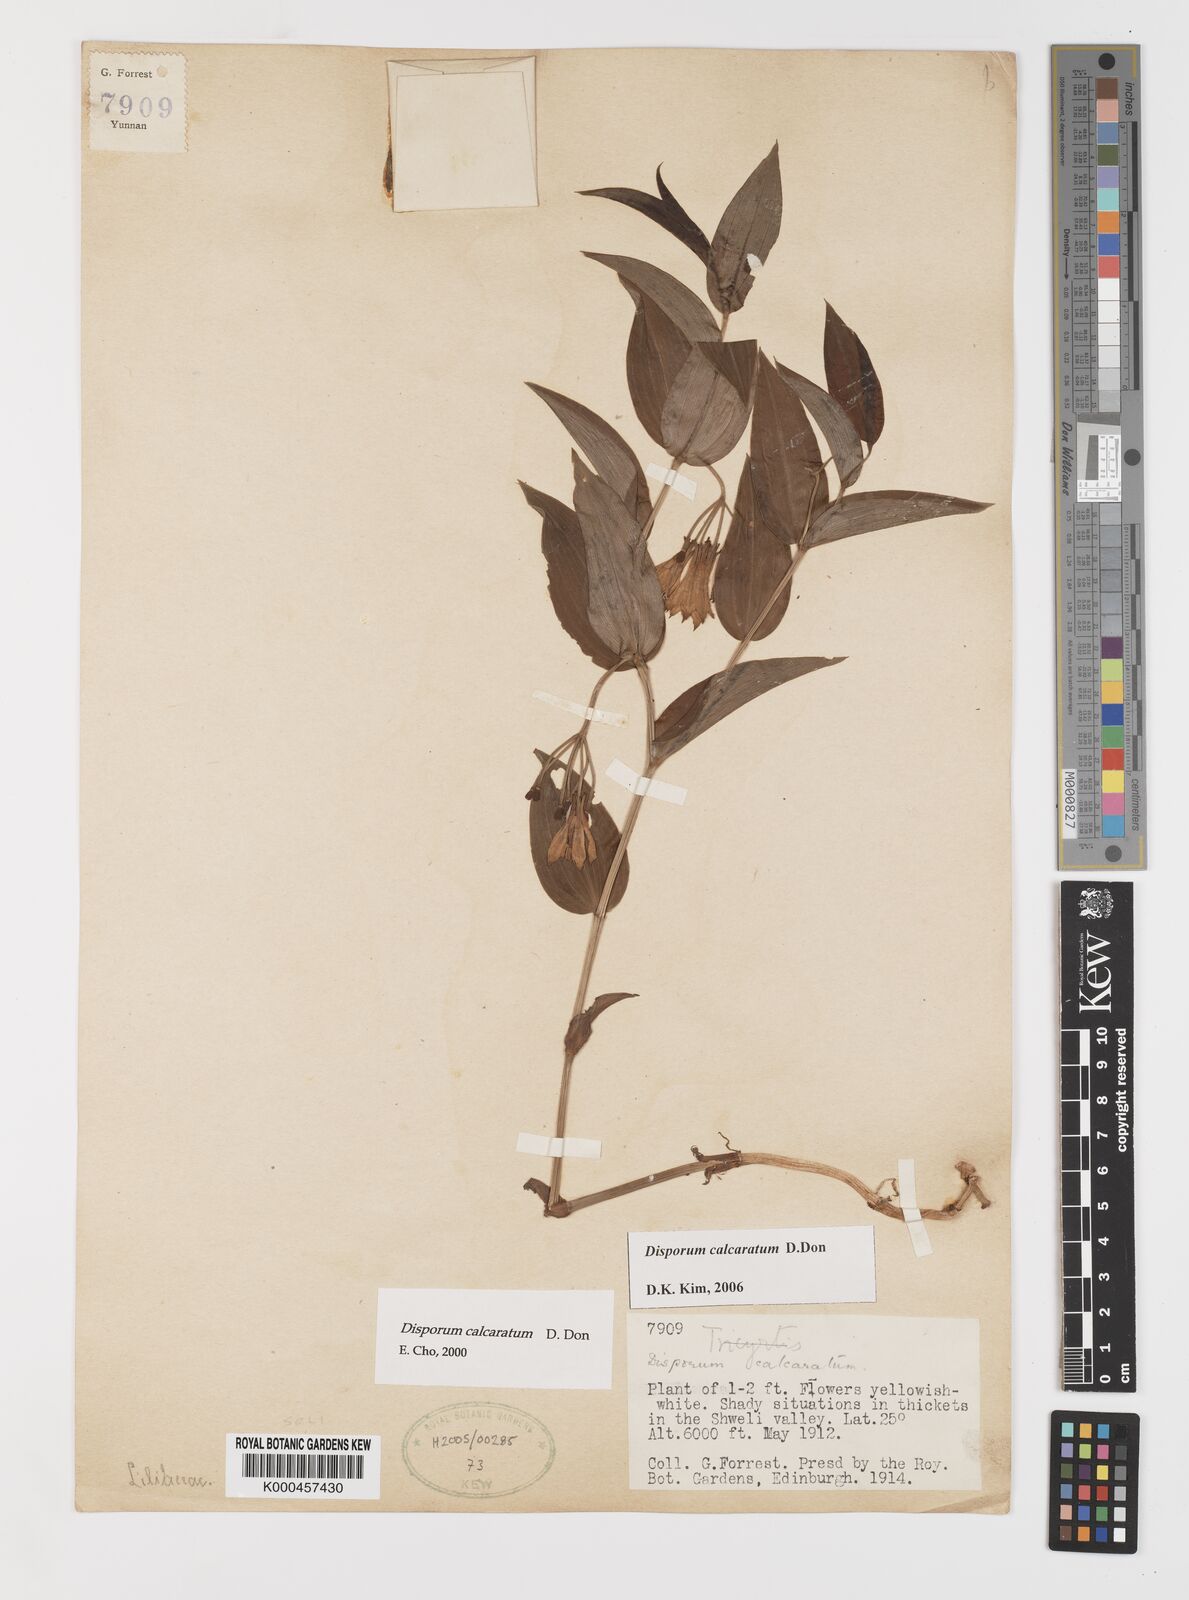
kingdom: Plantae
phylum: Tracheophyta
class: Liliopsida
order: Liliales
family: Colchicaceae
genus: Disporum
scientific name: Disporum calcaratum
